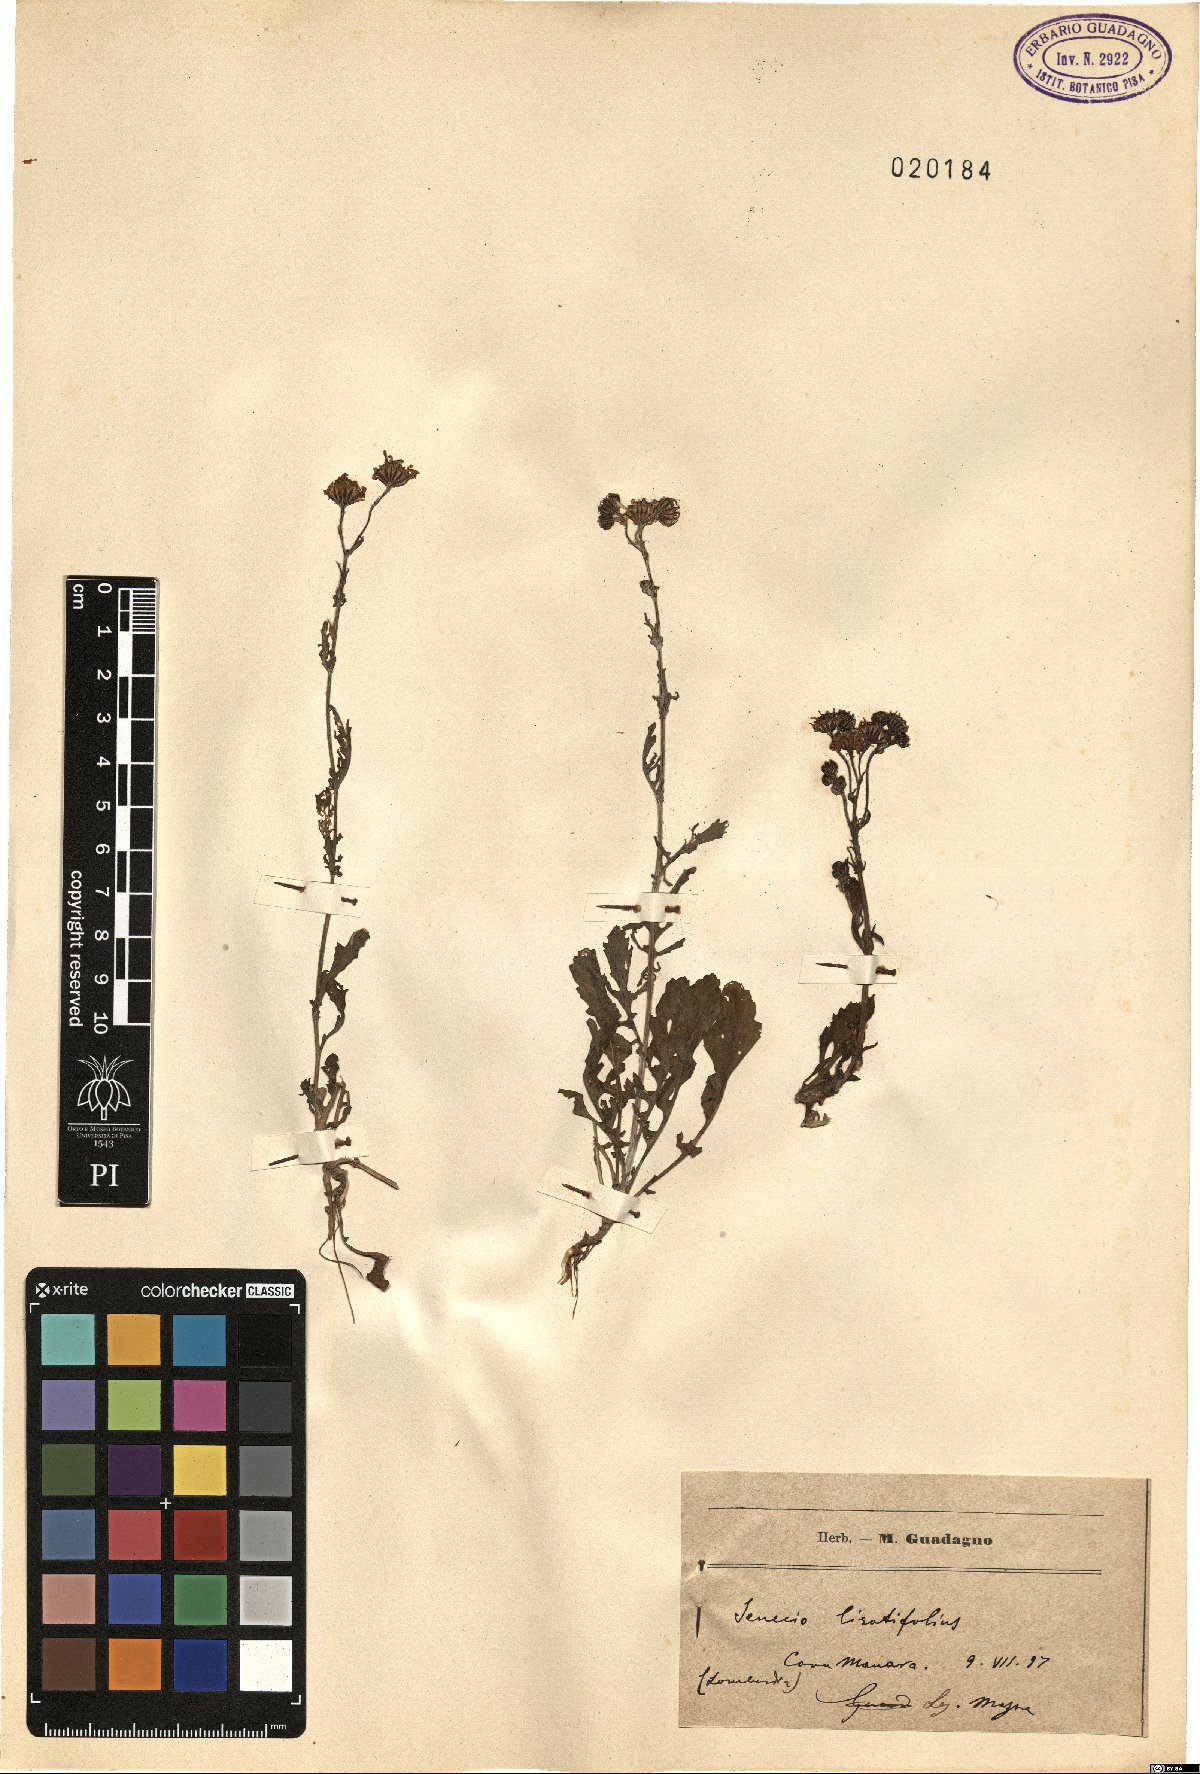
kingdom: Plantae
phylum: Tracheophyta
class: Magnoliopsida
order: Asterales
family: Asteraceae
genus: Senecio
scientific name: Senecio rupestris
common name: Rock ragwort
